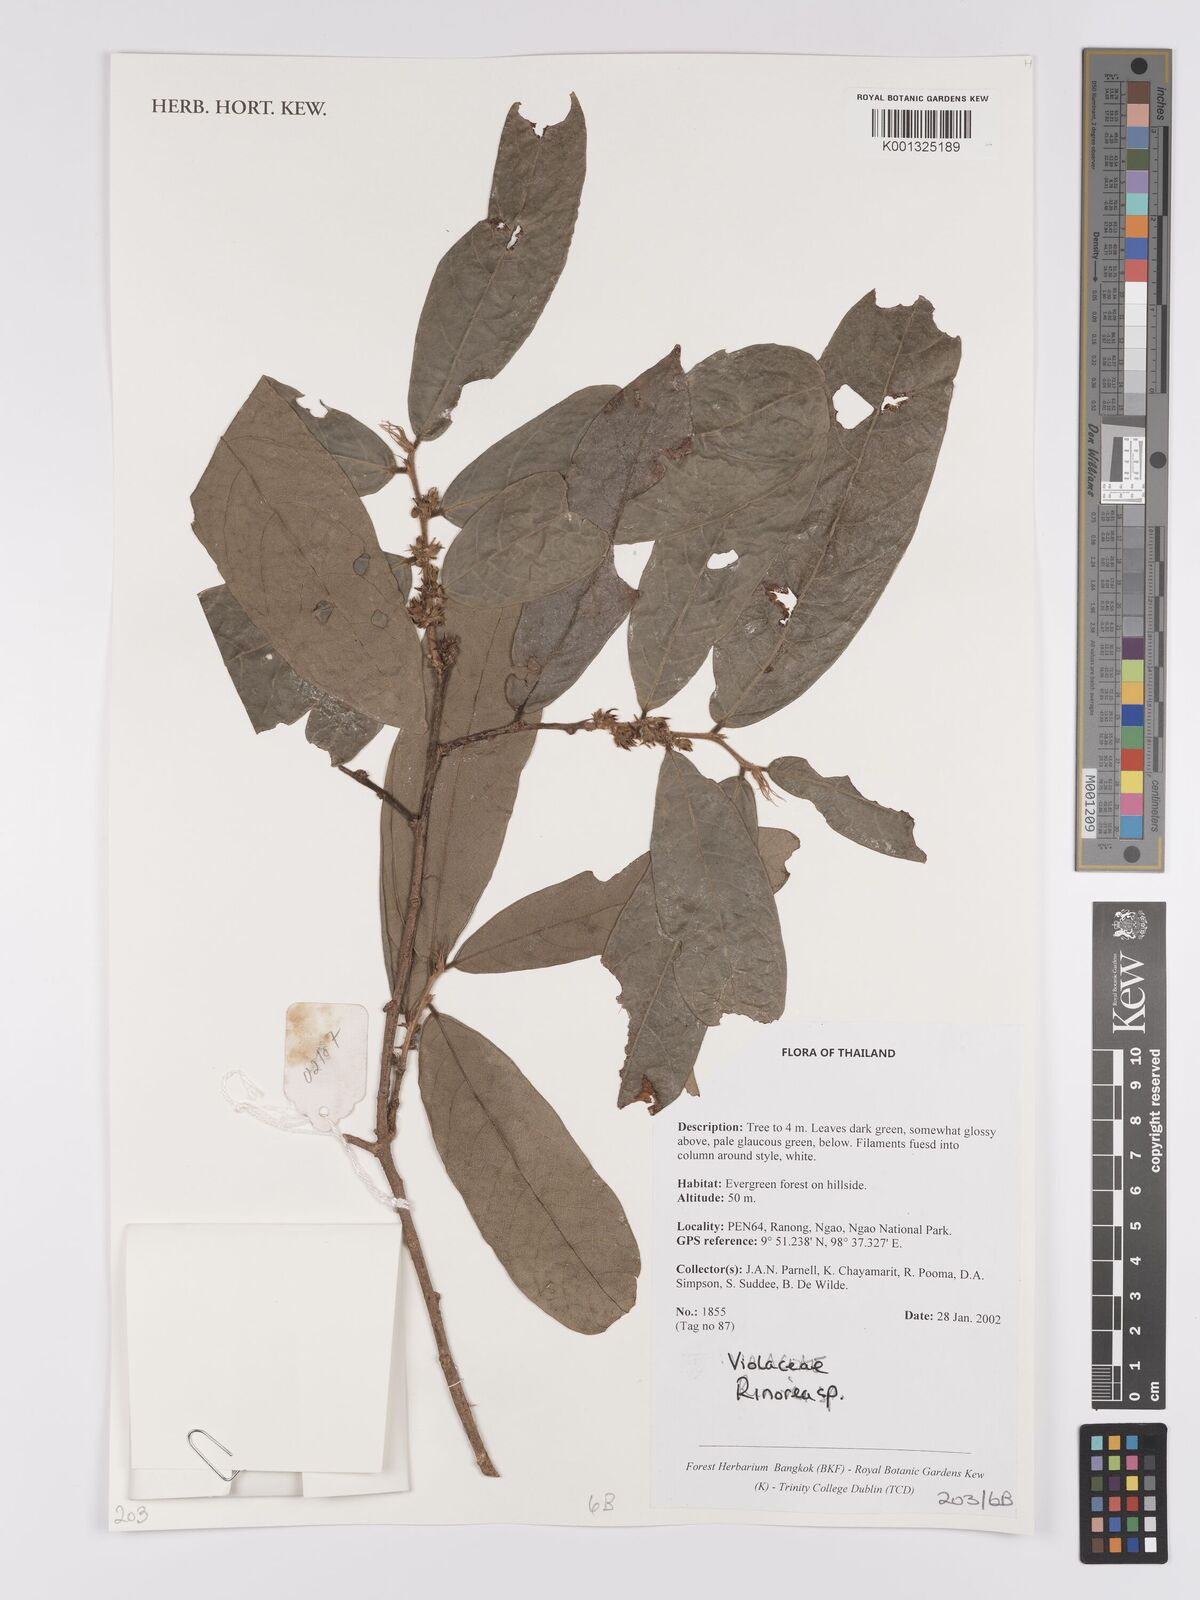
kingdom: Plantae
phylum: Tracheophyta
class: Magnoliopsida
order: Malpighiales
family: Violaceae
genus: Rinorea
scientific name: Rinorea
